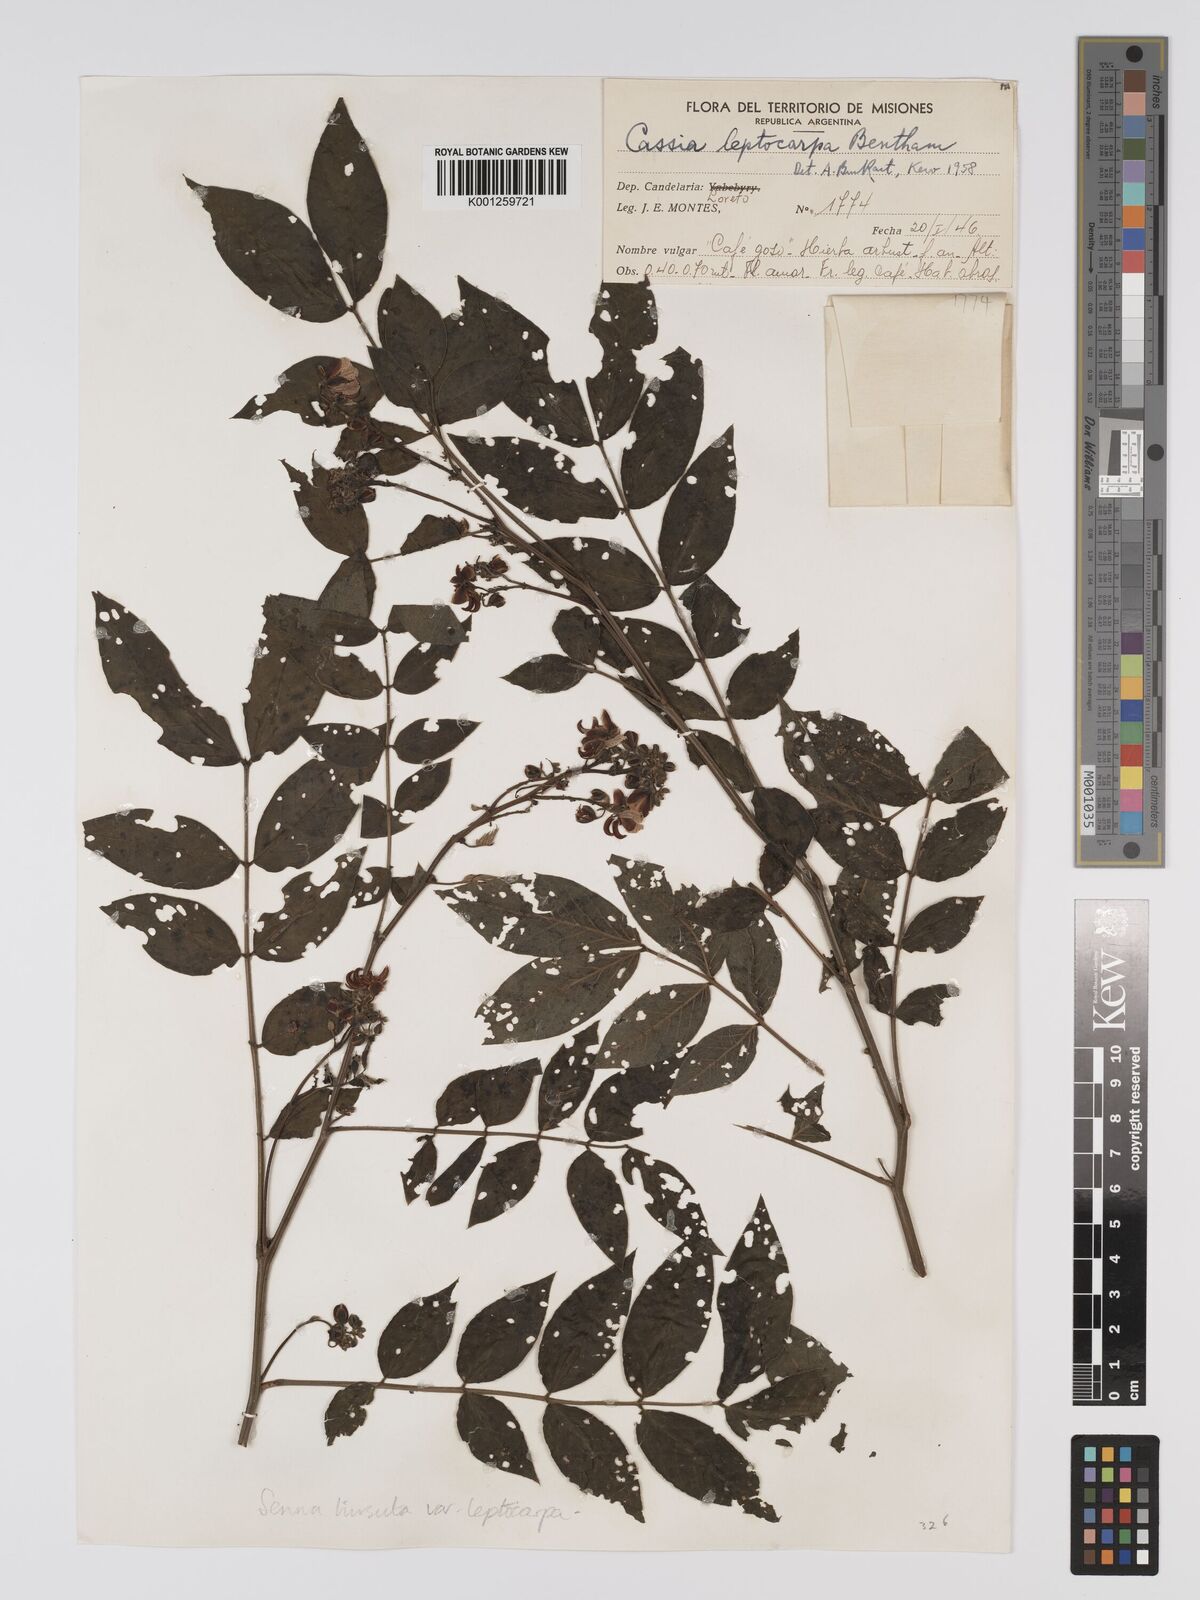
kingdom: Plantae
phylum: Tracheophyta
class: Magnoliopsida
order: Fabales
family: Fabaceae
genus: Senna
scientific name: Senna hirsuta
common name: Woolly senna
